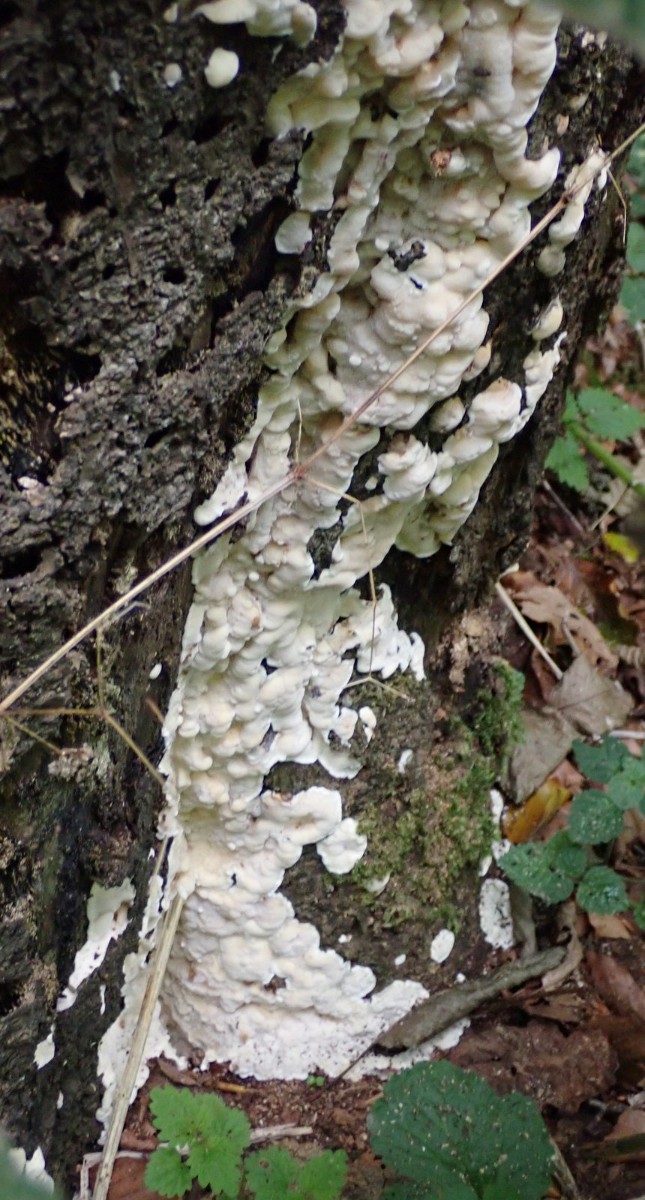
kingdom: Fungi
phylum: Basidiomycota
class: Agaricomycetes
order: Polyporales
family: Meruliaceae
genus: Physisporinus
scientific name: Physisporinus vitreus
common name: mastesvamp
